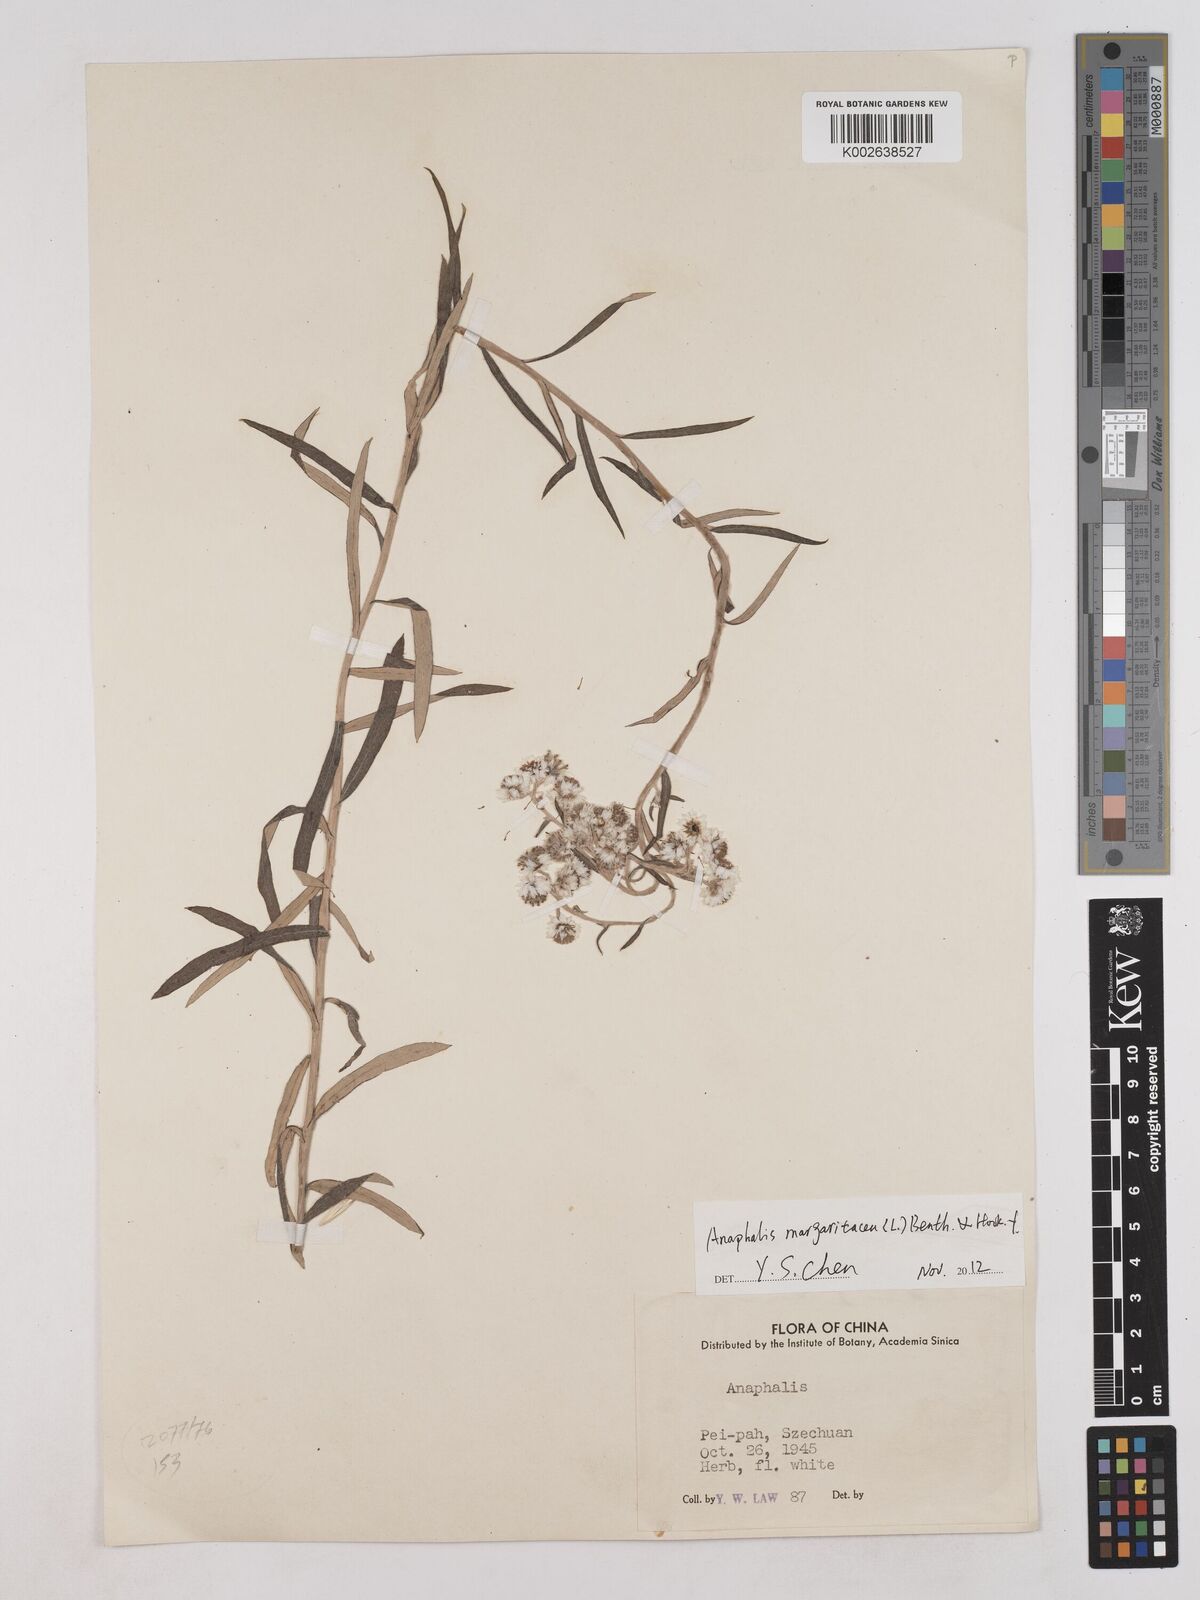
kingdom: Plantae
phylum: Tracheophyta
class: Magnoliopsida
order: Asterales
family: Asteraceae
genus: Anaphalis
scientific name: Anaphalis
